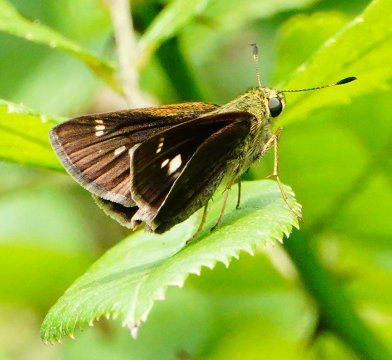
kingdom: Animalia
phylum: Arthropoda
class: Insecta
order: Lepidoptera
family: Hesperiidae
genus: Vernia
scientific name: Vernia verna
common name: Little Glassywing
